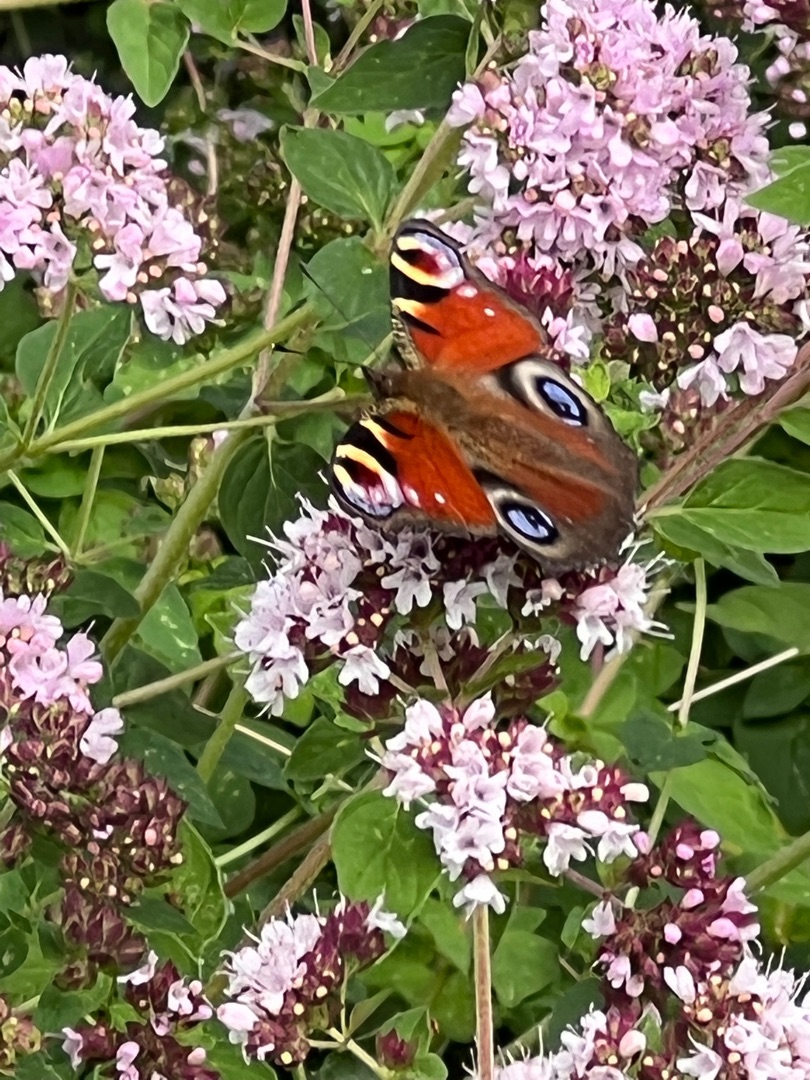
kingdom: Animalia
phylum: Arthropoda
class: Insecta
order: Lepidoptera
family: Nymphalidae
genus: Aglais
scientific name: Aglais io
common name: Dagpåfugleøje
